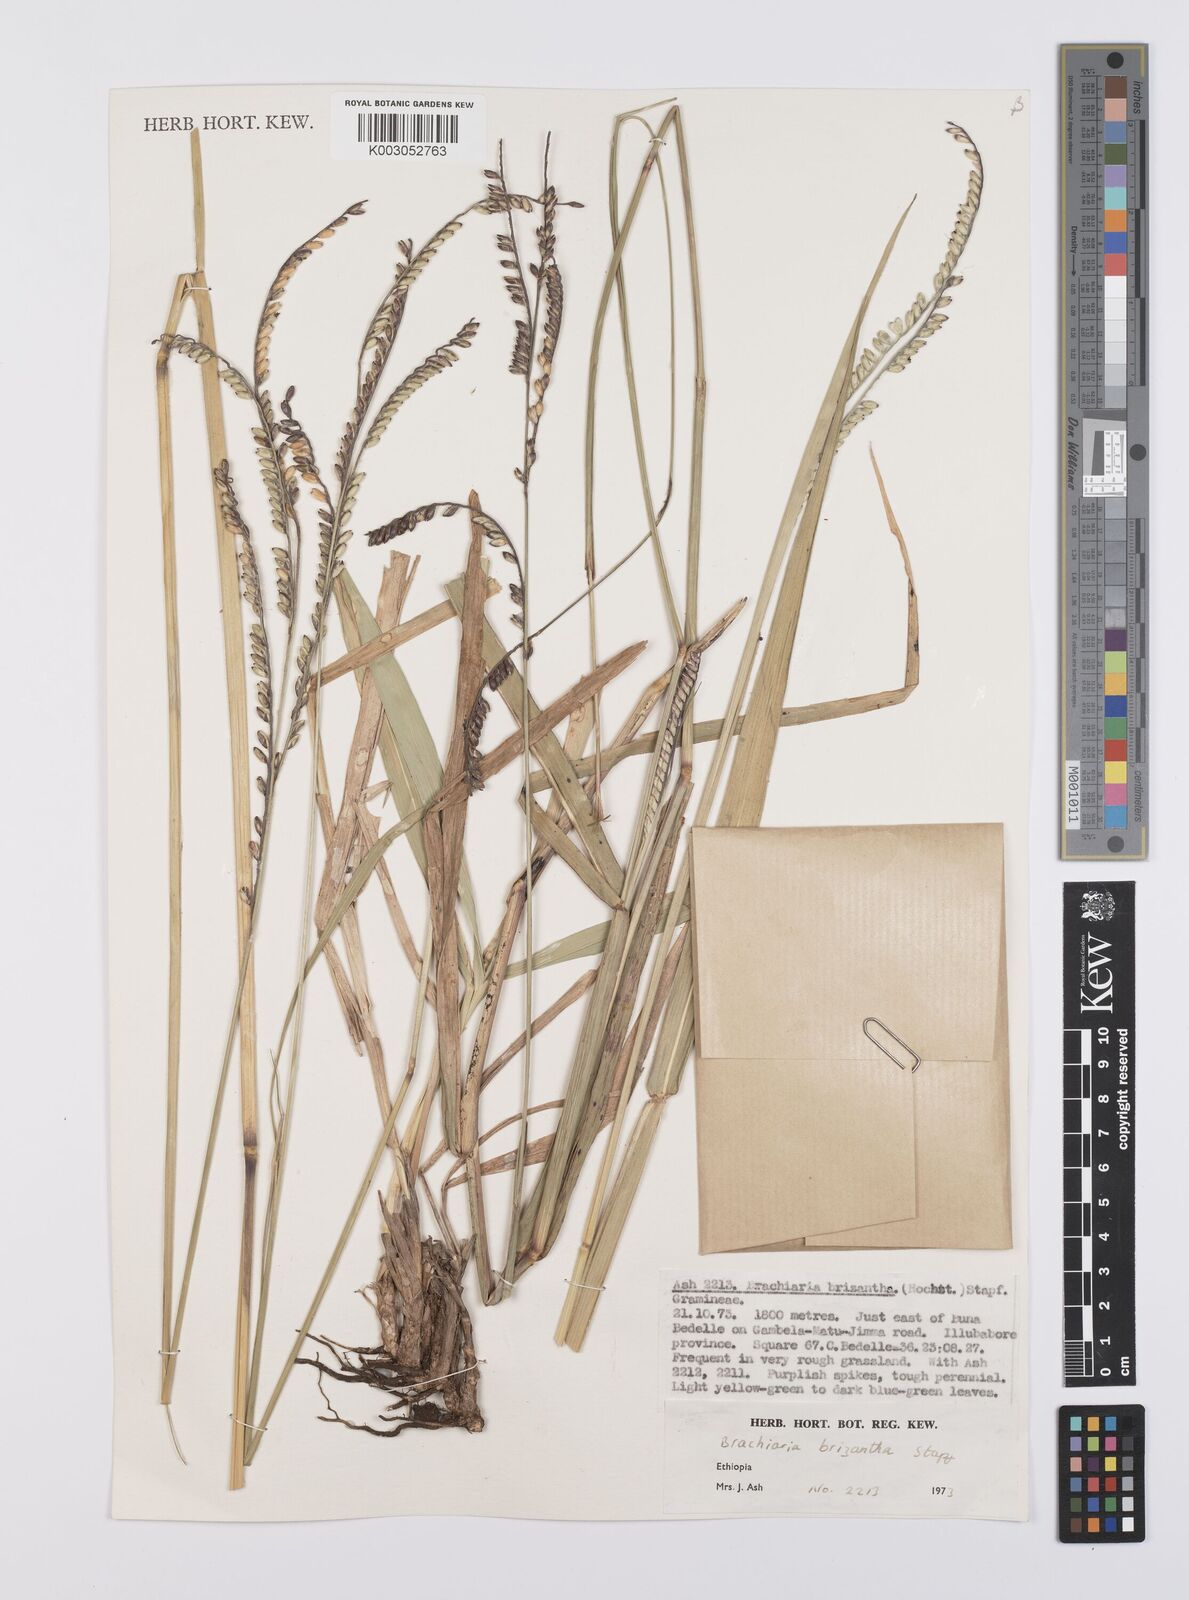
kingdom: Plantae
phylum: Tracheophyta
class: Liliopsida
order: Poales
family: Poaceae
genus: Urochloa
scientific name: Urochloa brizantha
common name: Palisade signalgrass
